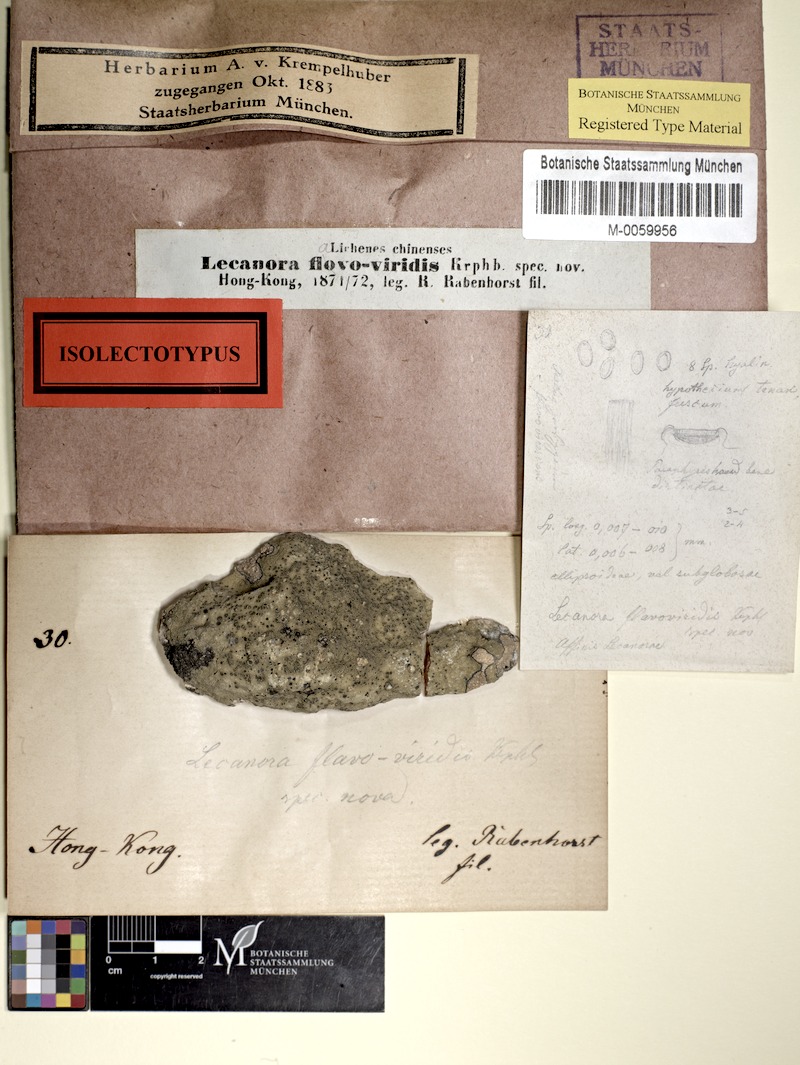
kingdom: Fungi
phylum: Ascomycota
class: Lecanoromycetes
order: Lecanorales
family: Lecanoraceae
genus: Lecanora
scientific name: Lecanora flavoviridis
